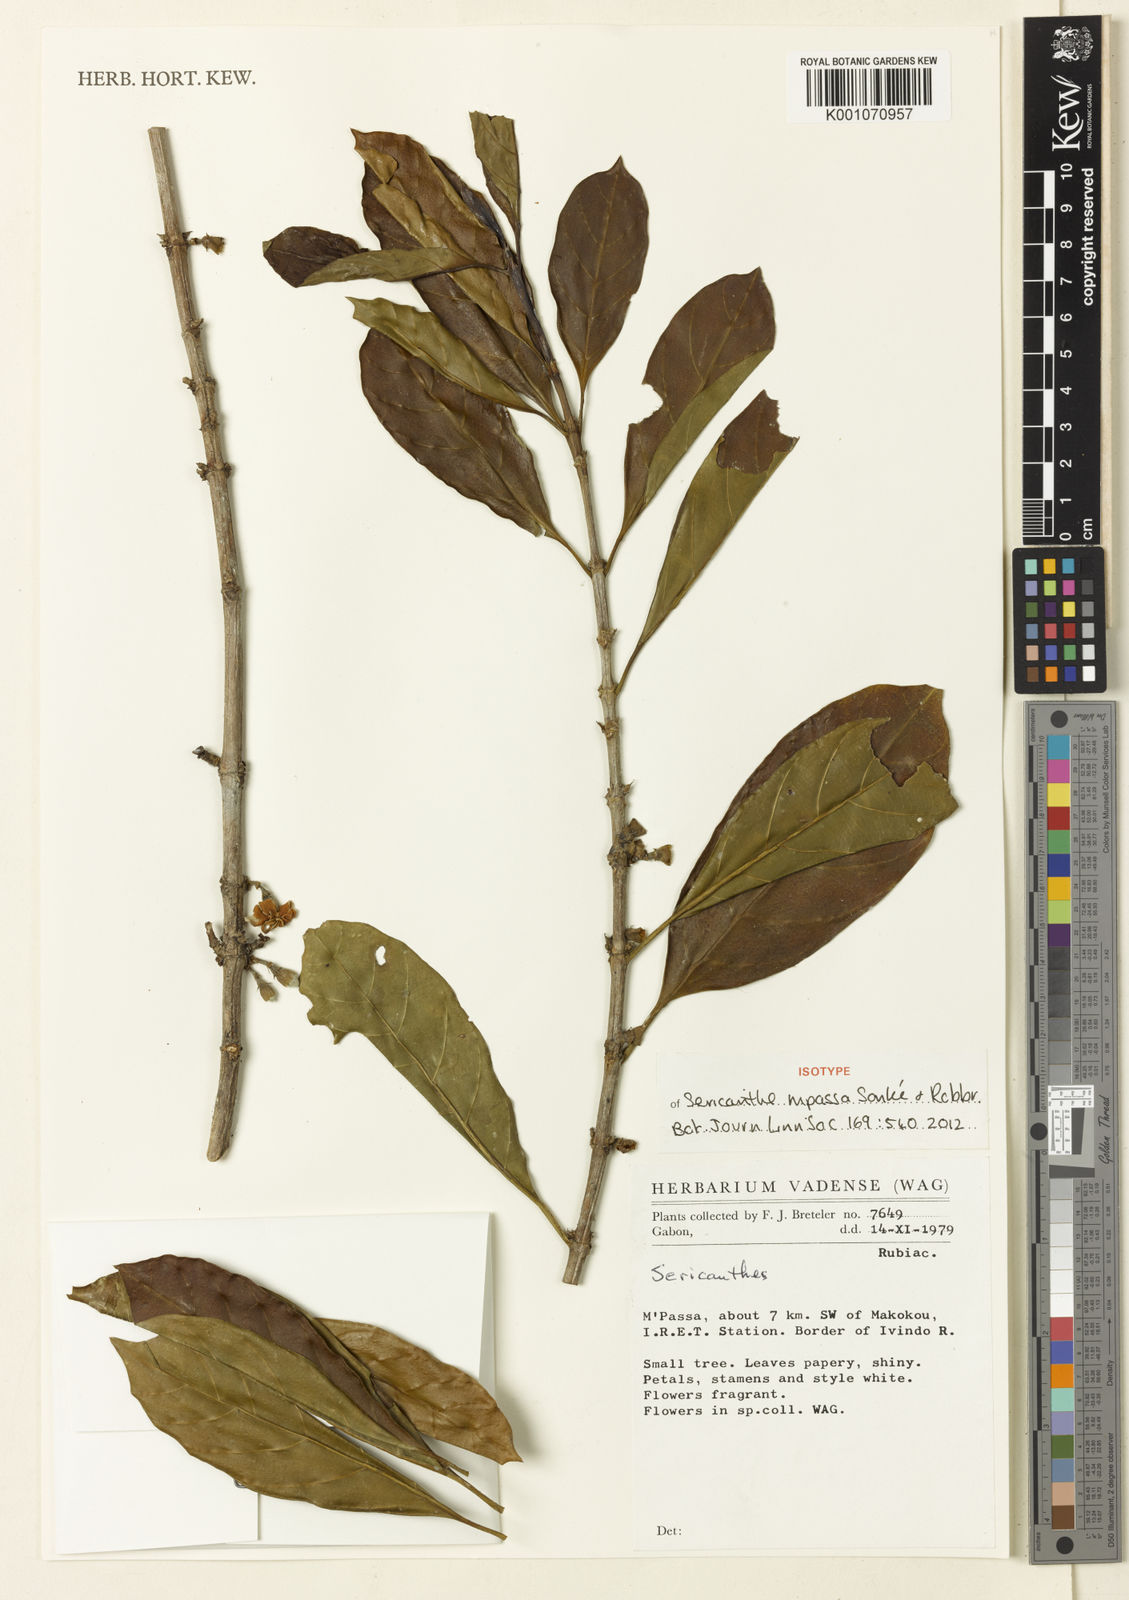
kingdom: Plantae
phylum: Tracheophyta
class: Magnoliopsida
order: Gentianales
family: Rubiaceae
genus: Sericanthe
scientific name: Sericanthe
